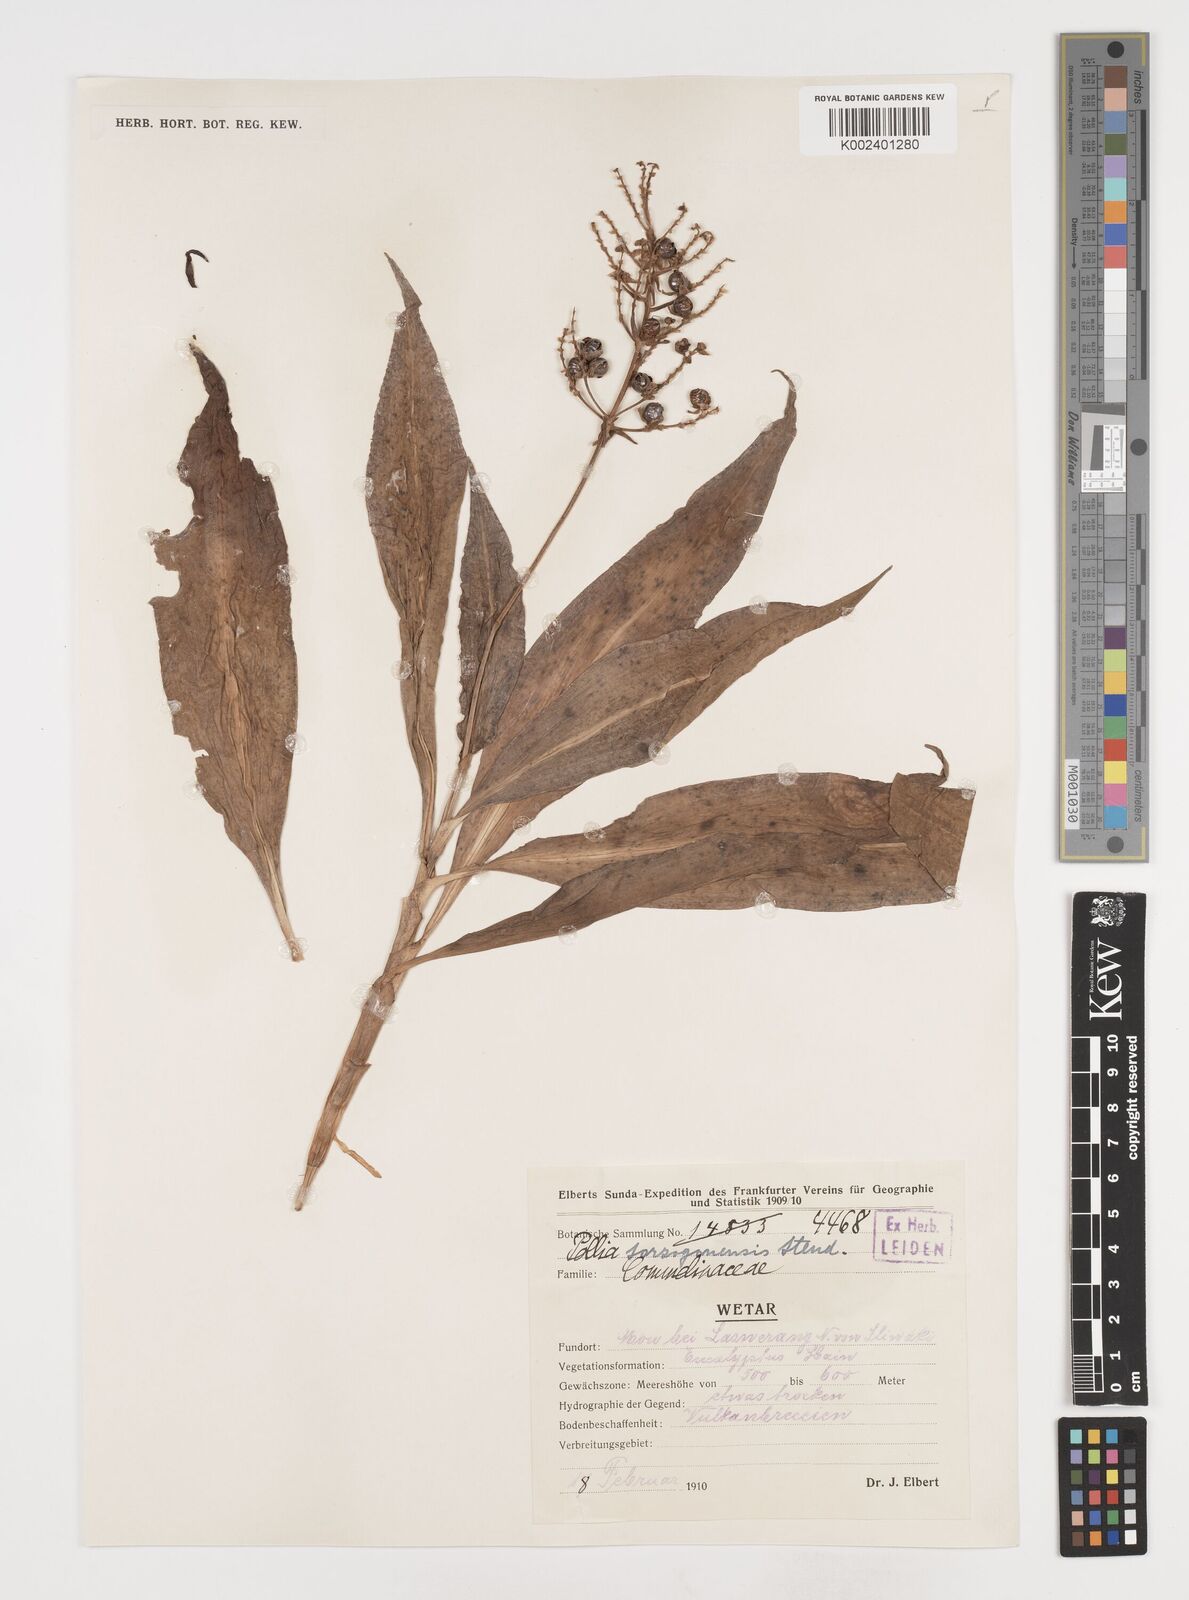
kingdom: Plantae
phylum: Tracheophyta
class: Liliopsida
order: Commelinales
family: Commelinaceae
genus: Pollia
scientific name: Pollia secundiflora
